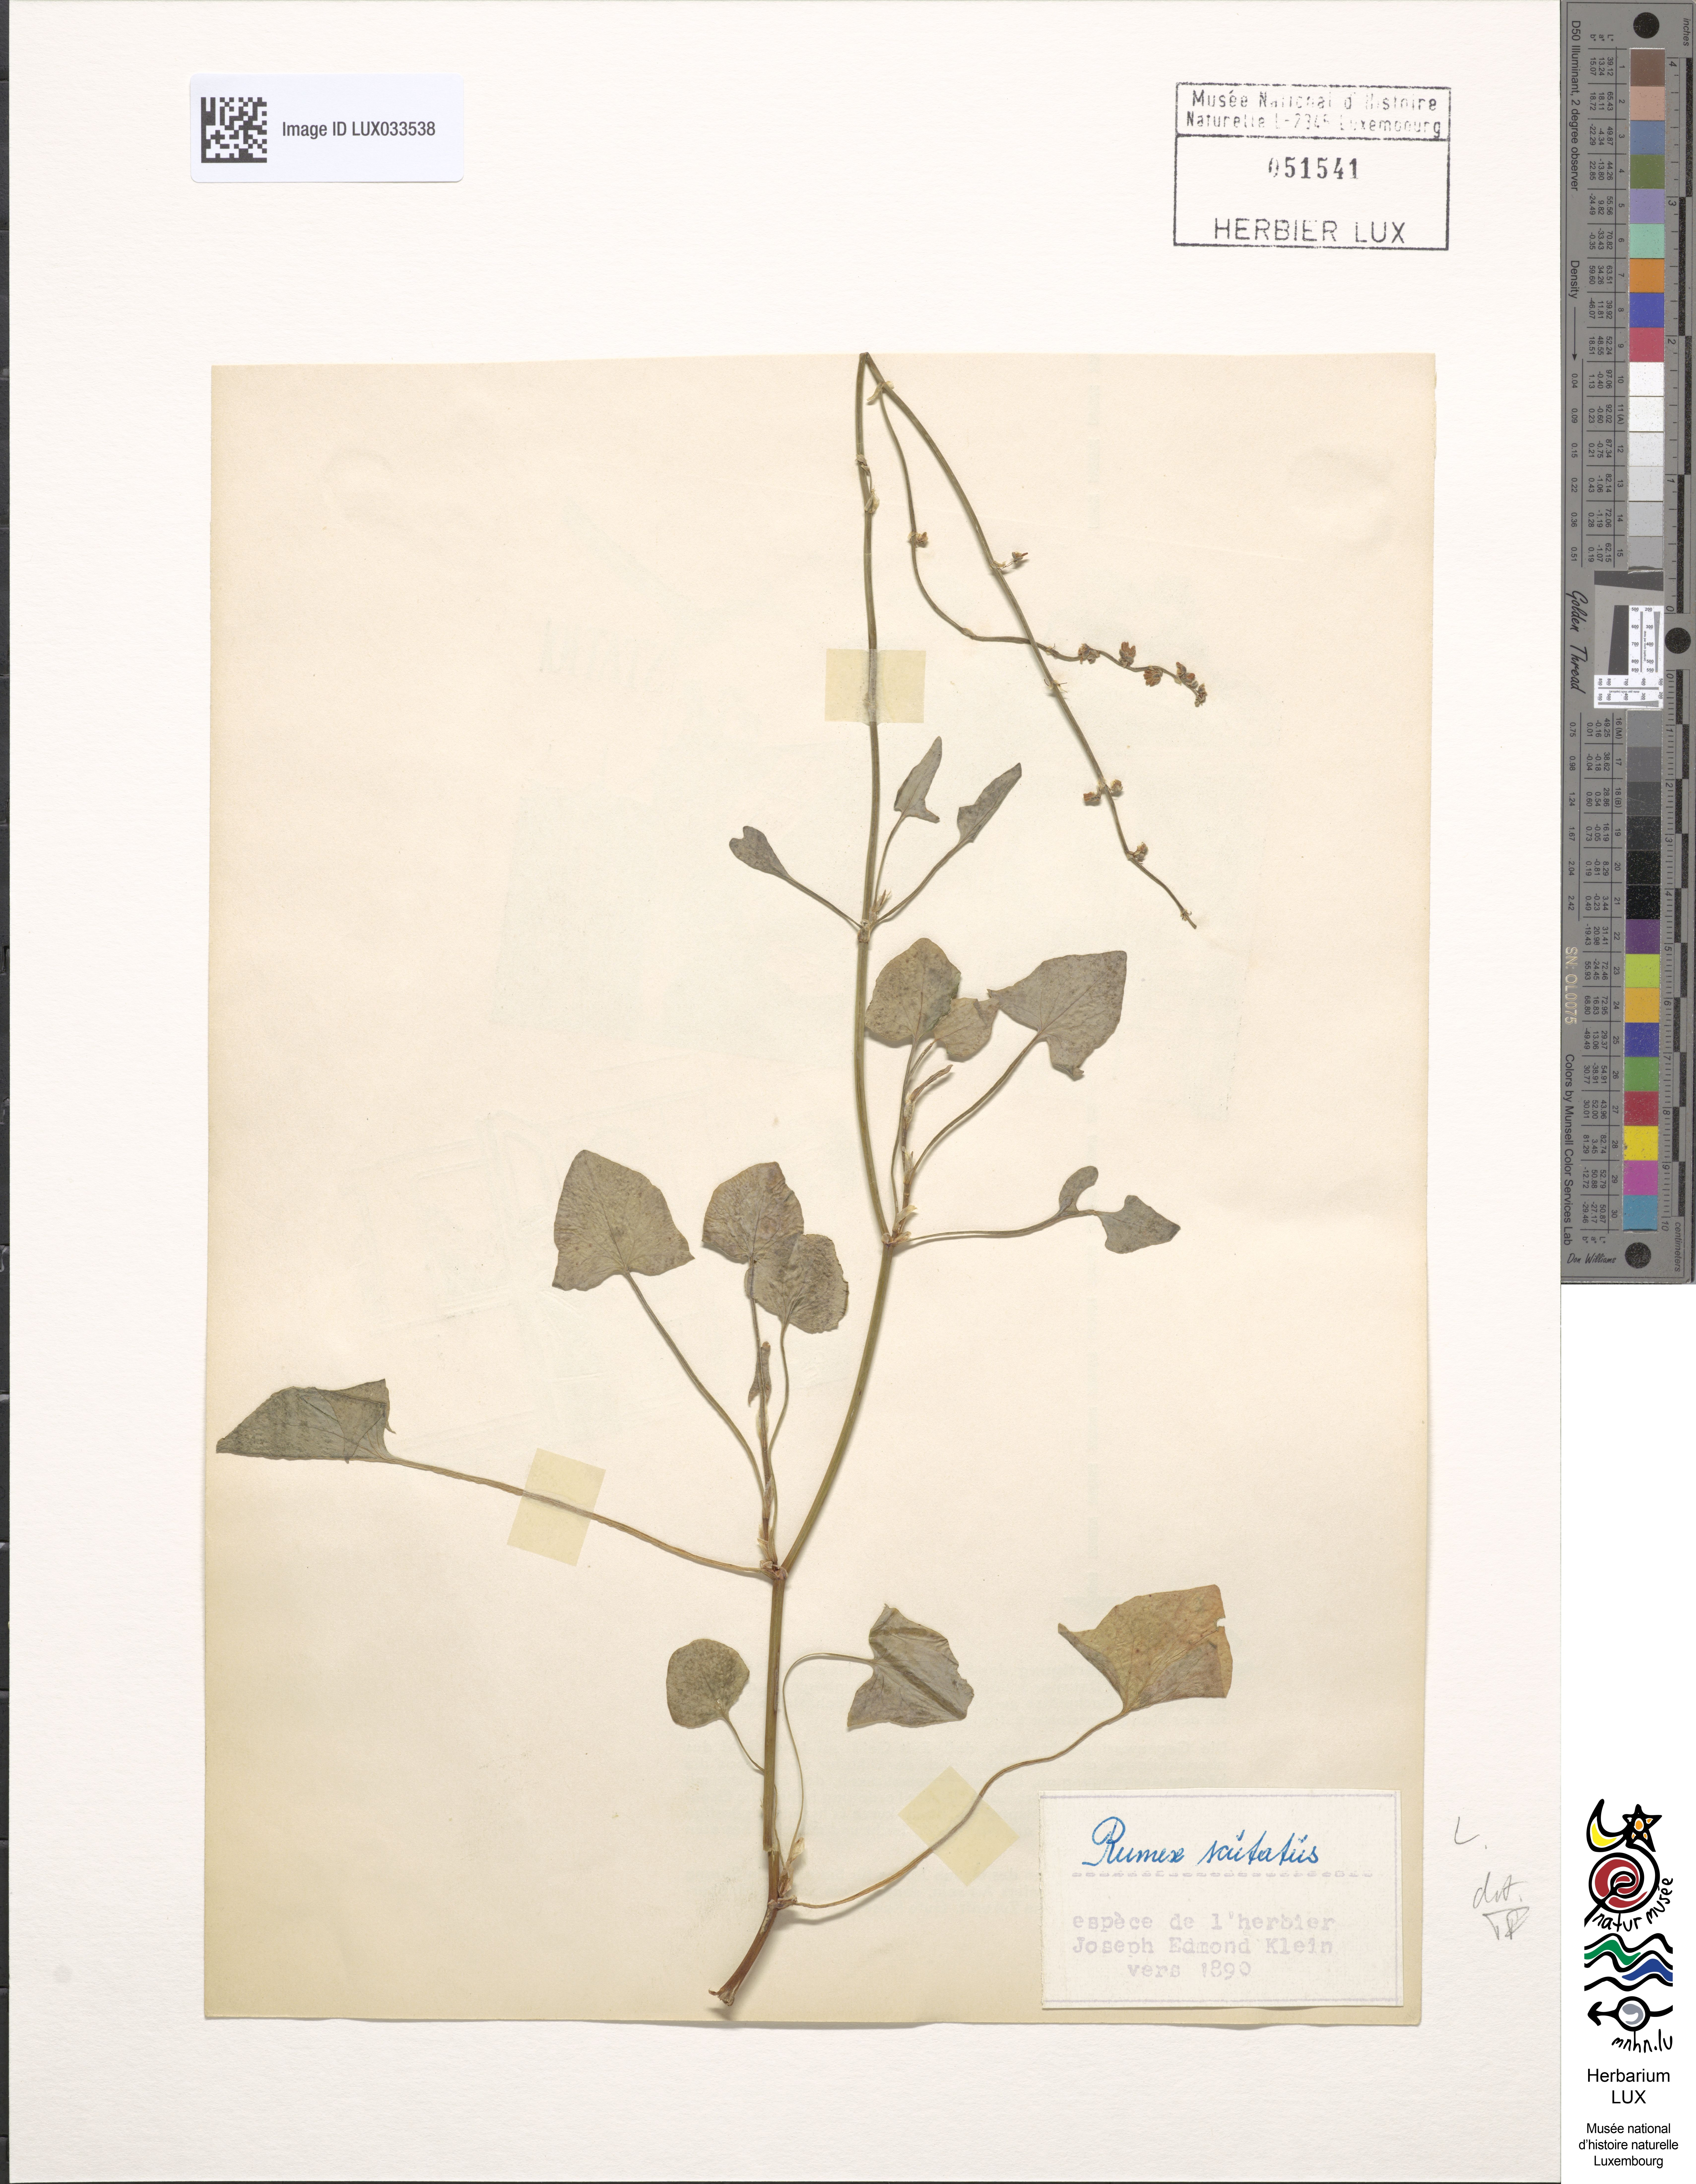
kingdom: Plantae
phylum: Tracheophyta
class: Magnoliopsida
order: Caryophyllales
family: Polygonaceae
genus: Rumex
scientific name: Rumex scutatus
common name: French sorrel
